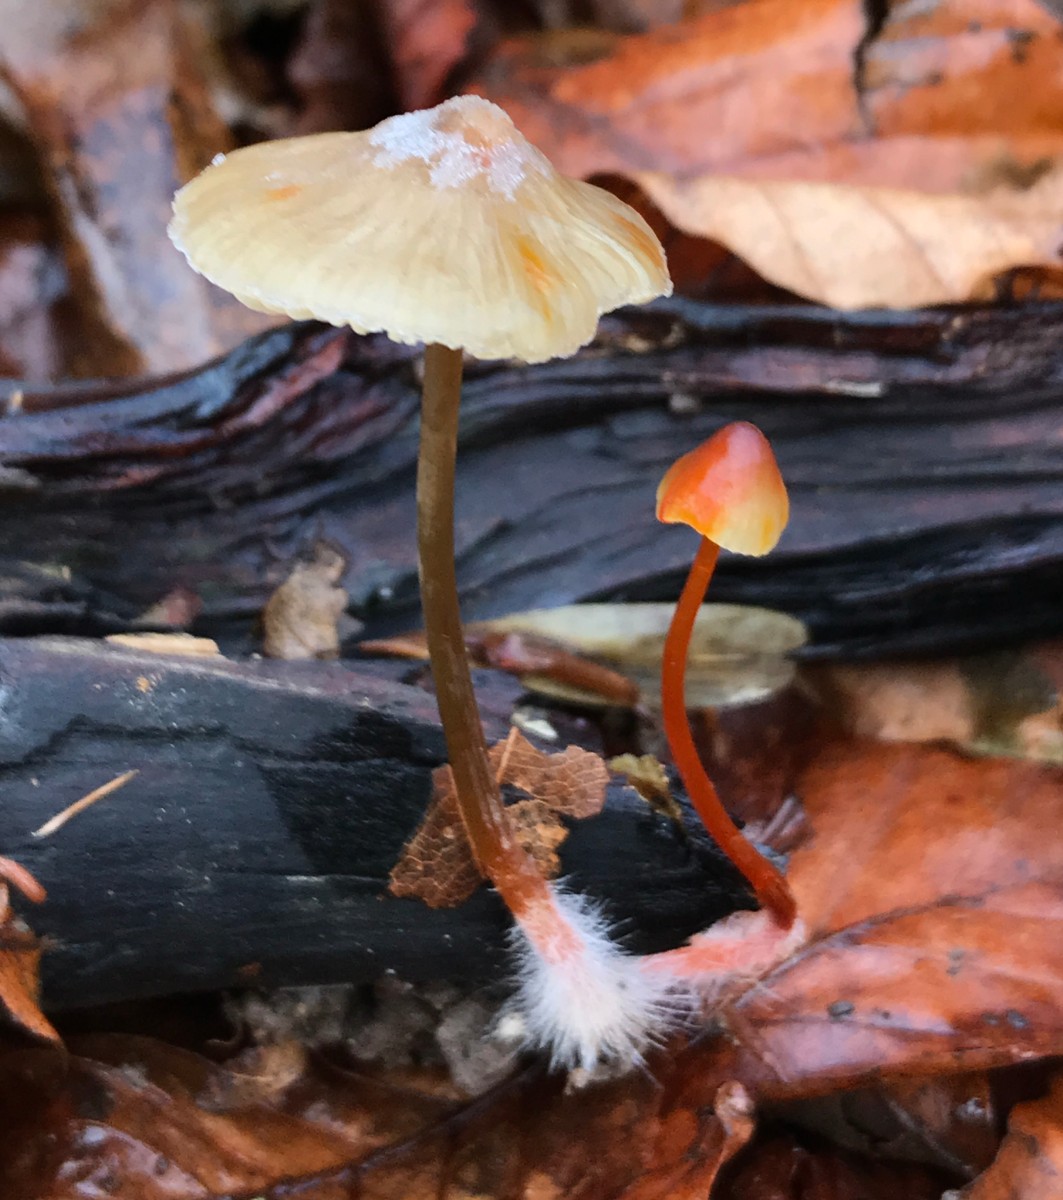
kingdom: Fungi
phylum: Basidiomycota
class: Agaricomycetes
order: Agaricales
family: Mycenaceae
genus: Mycena
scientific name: Mycena crocata
